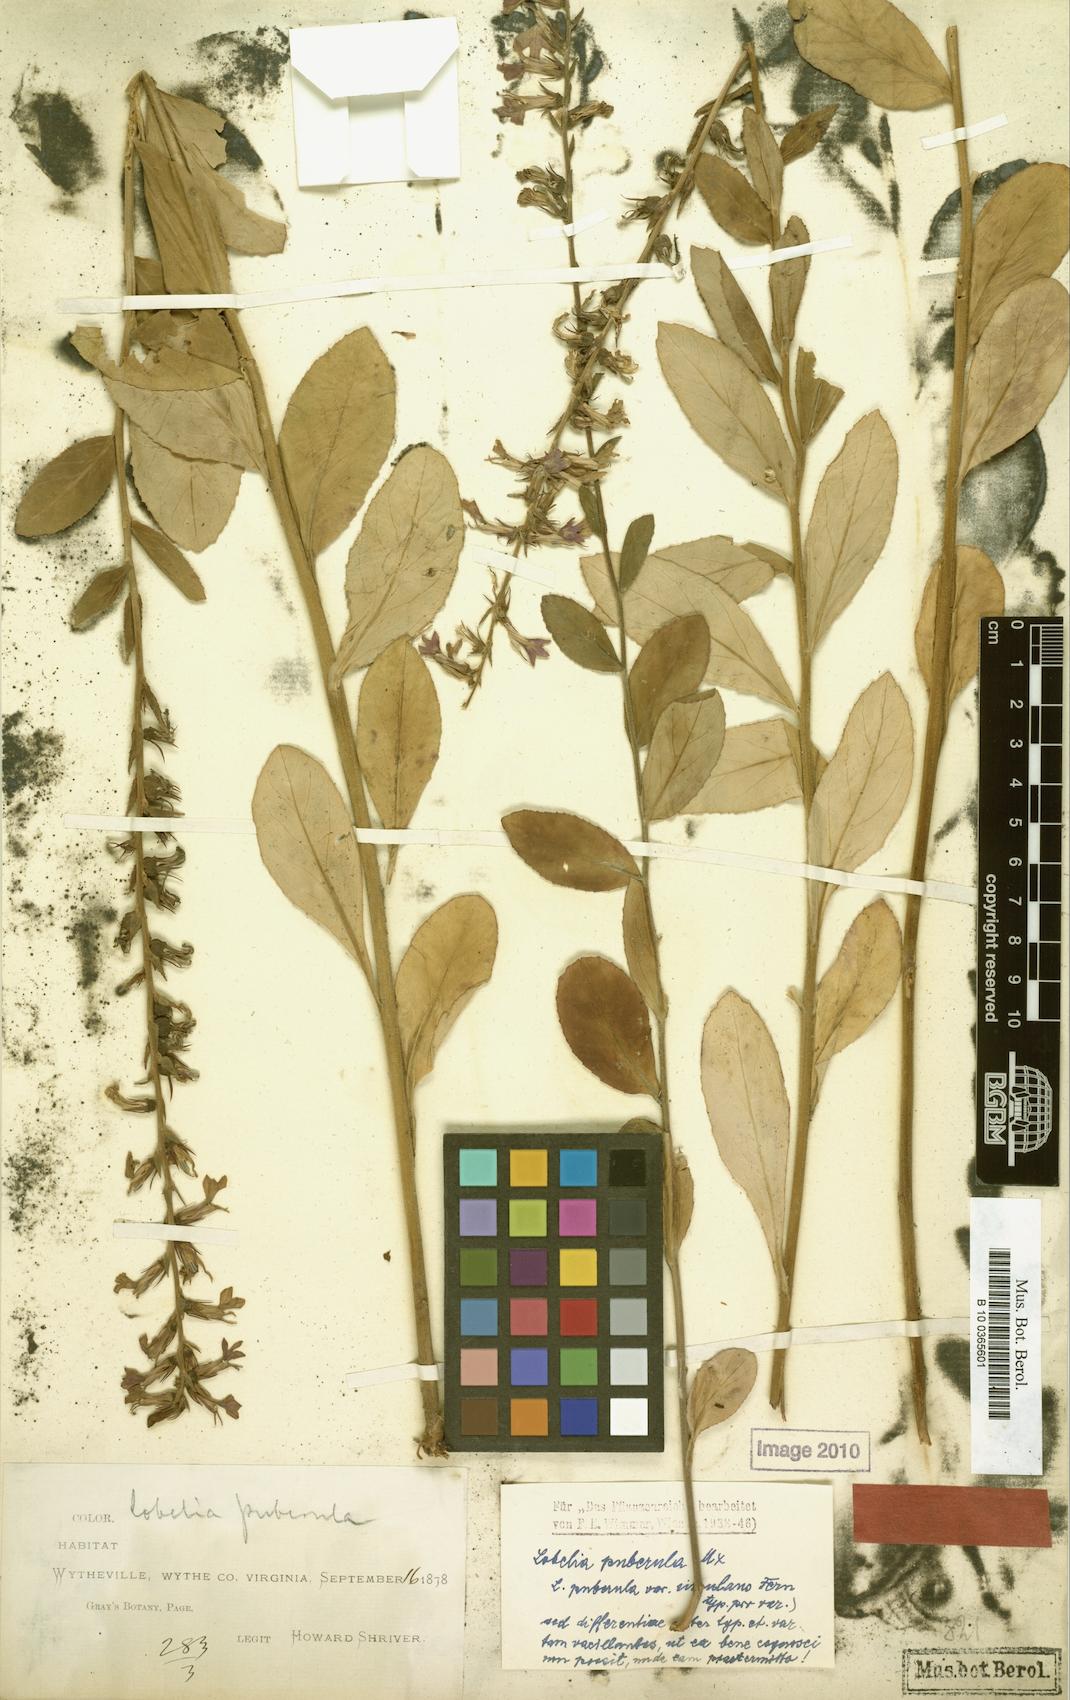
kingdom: Plantae
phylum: Tracheophyta
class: Magnoliopsida
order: Asterales
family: Campanulaceae
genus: Lobelia
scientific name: Lobelia puberula
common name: Purple dewdrop
